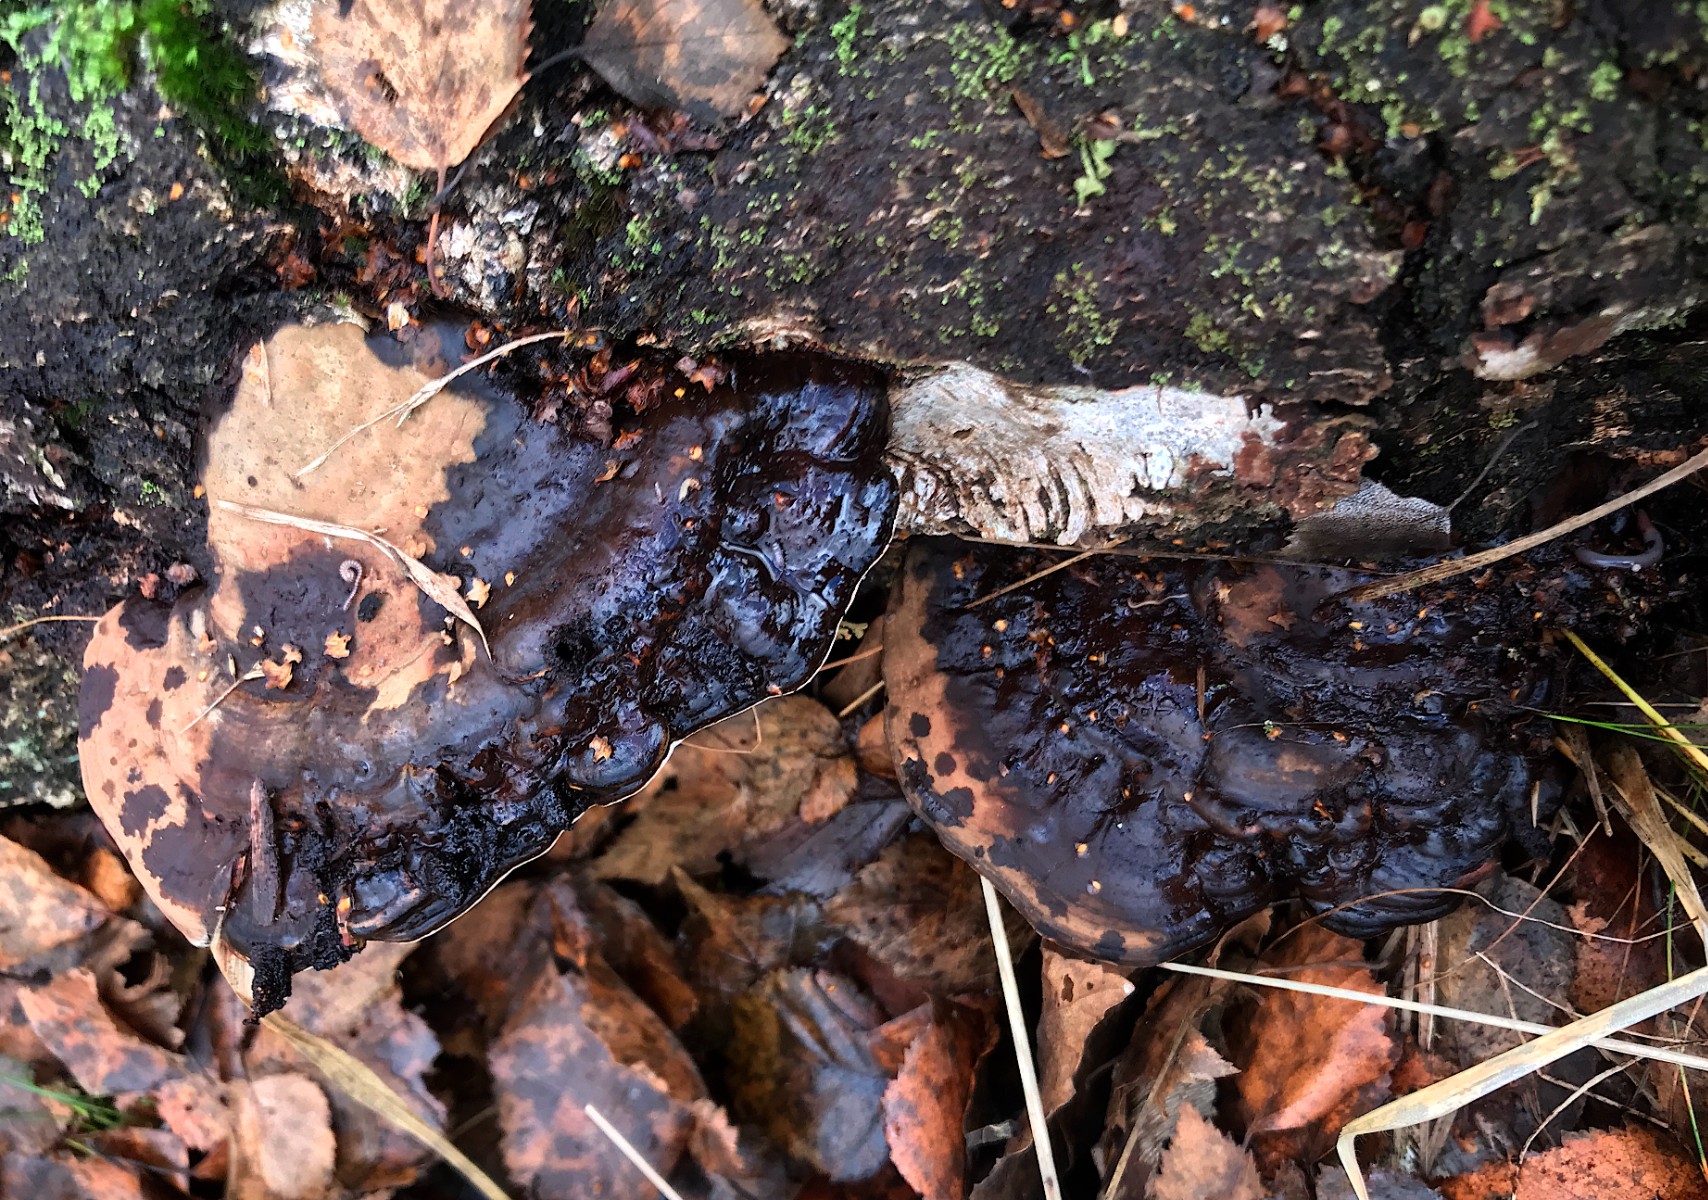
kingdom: Fungi
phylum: Basidiomycota
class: Agaricomycetes
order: Polyporales
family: Polyporaceae
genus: Ganoderma
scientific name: Ganoderma applanatum
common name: flad lakporesvamp
